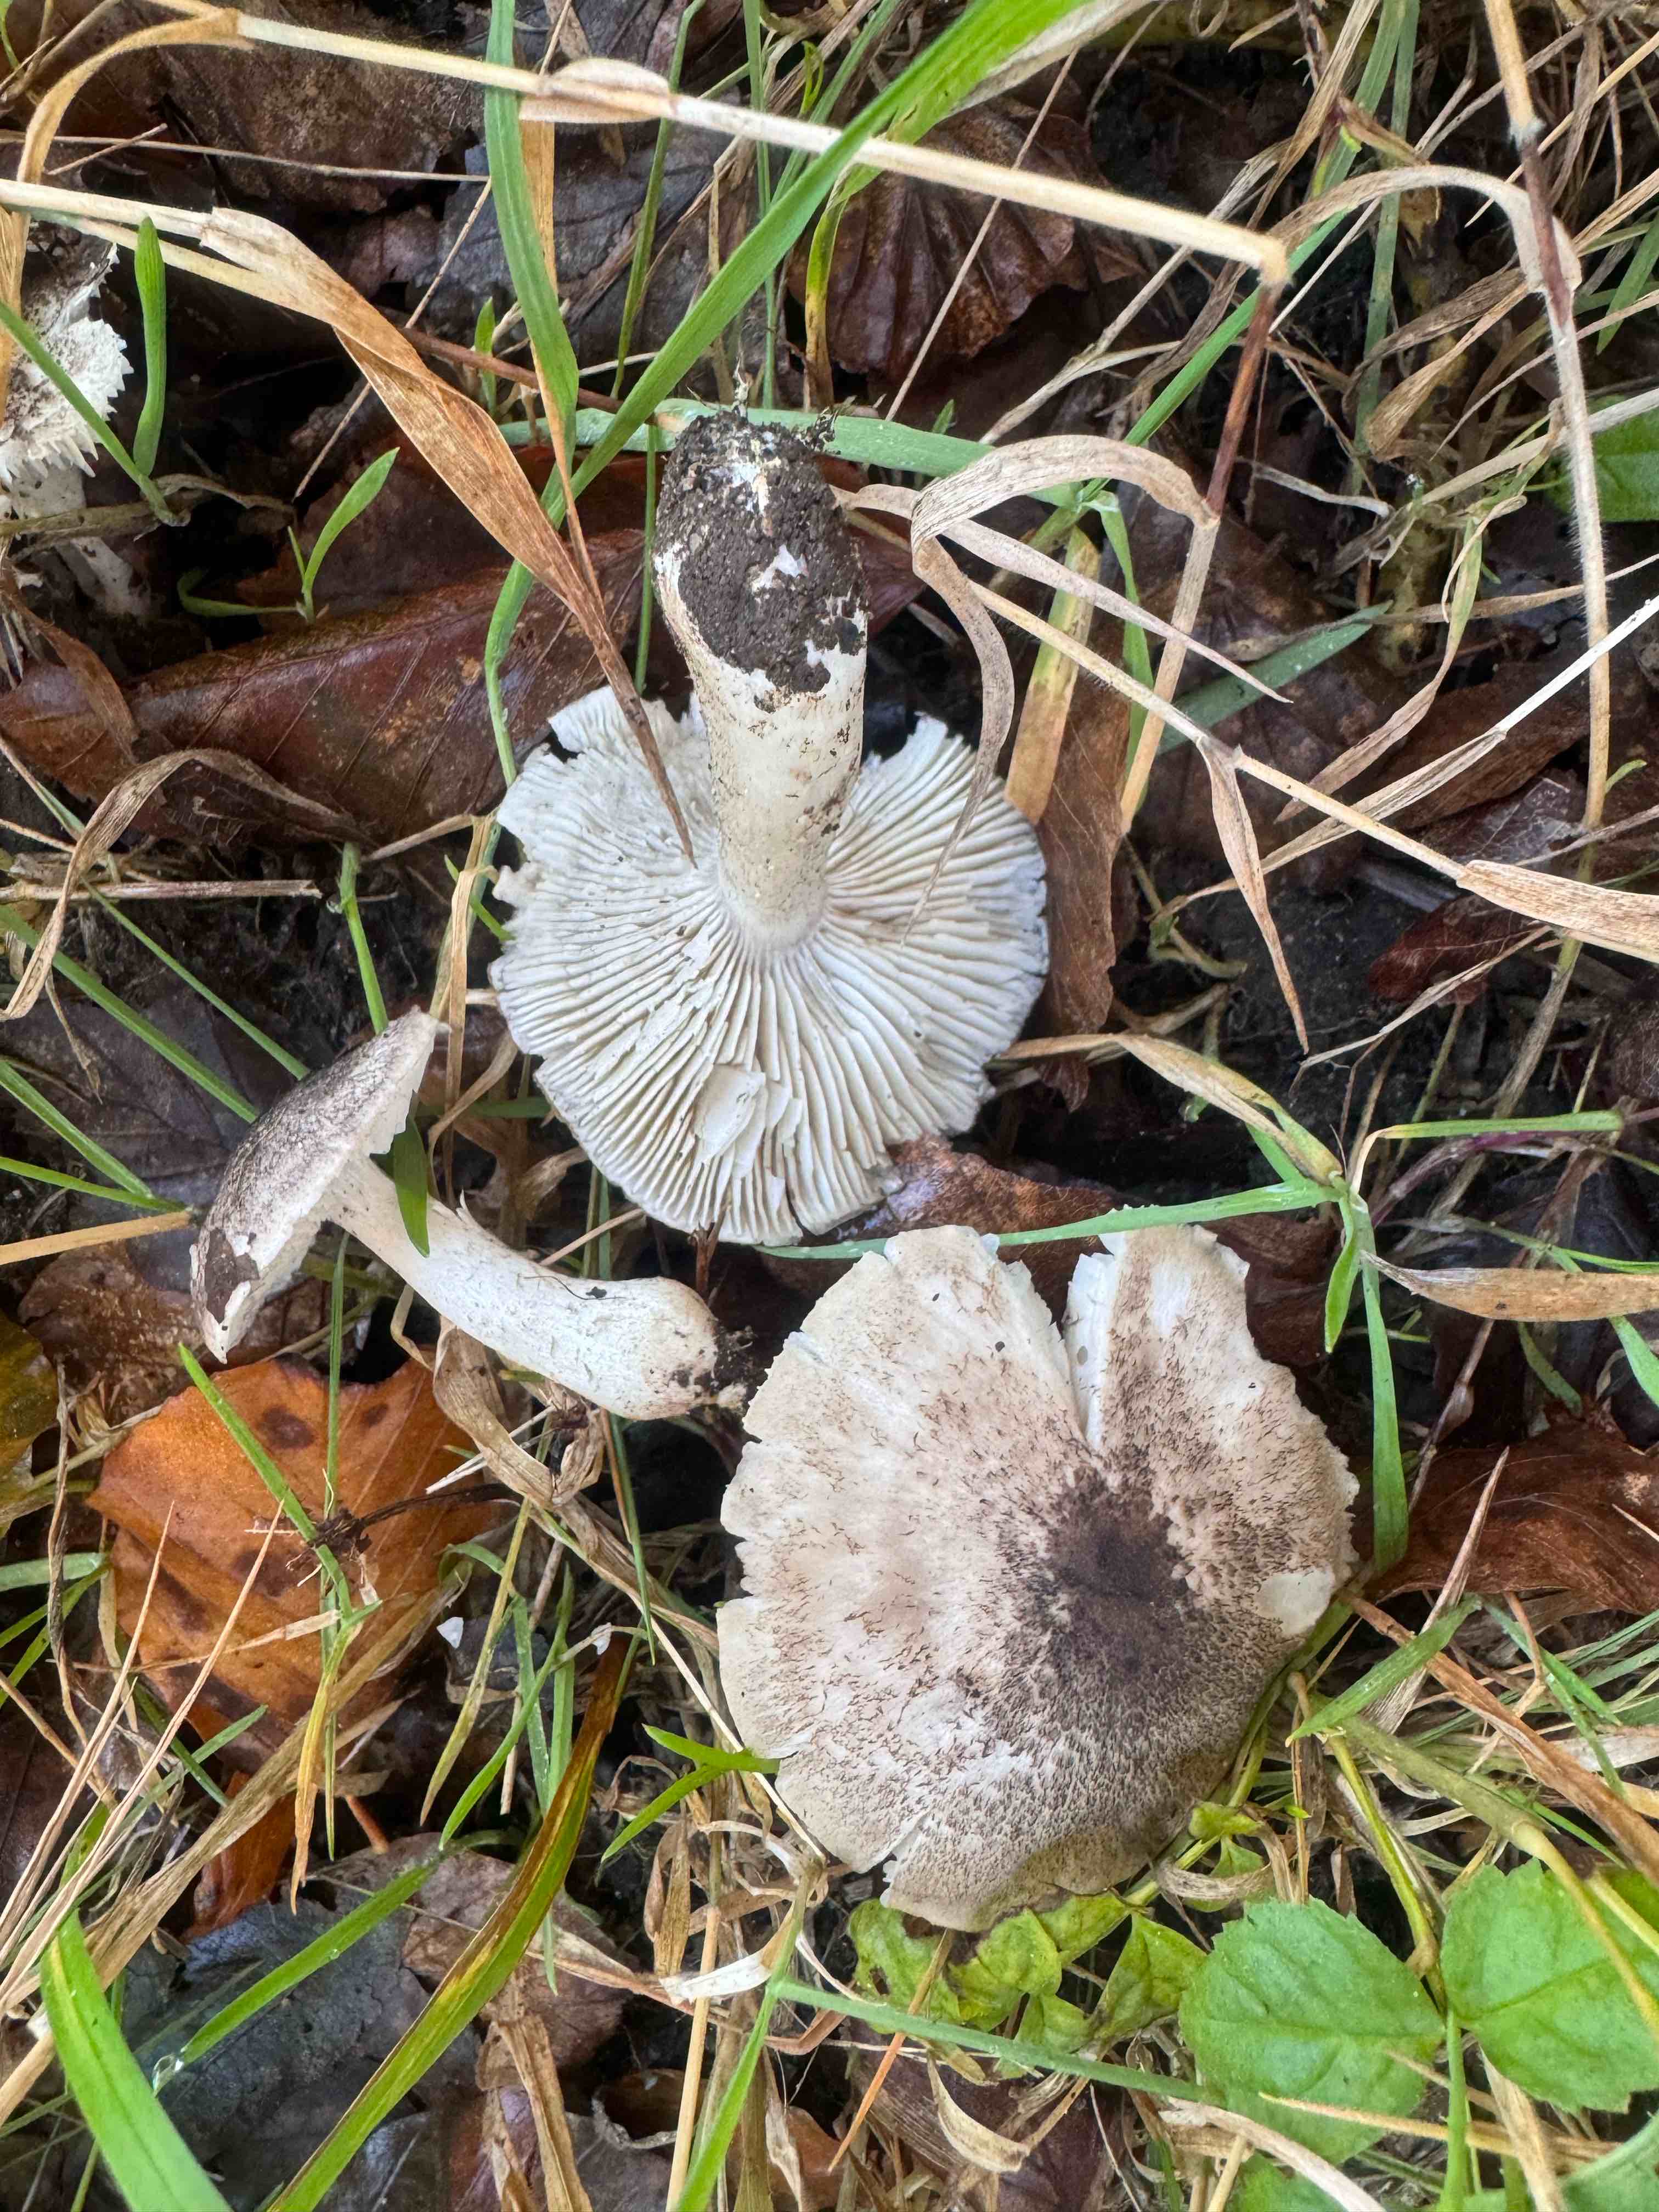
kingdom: Fungi
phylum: Basidiomycota
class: Agaricomycetes
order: Agaricales
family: Tricholomataceae
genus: Tricholoma
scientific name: Tricholoma scalpturatum
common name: gulplettet ridderhat
